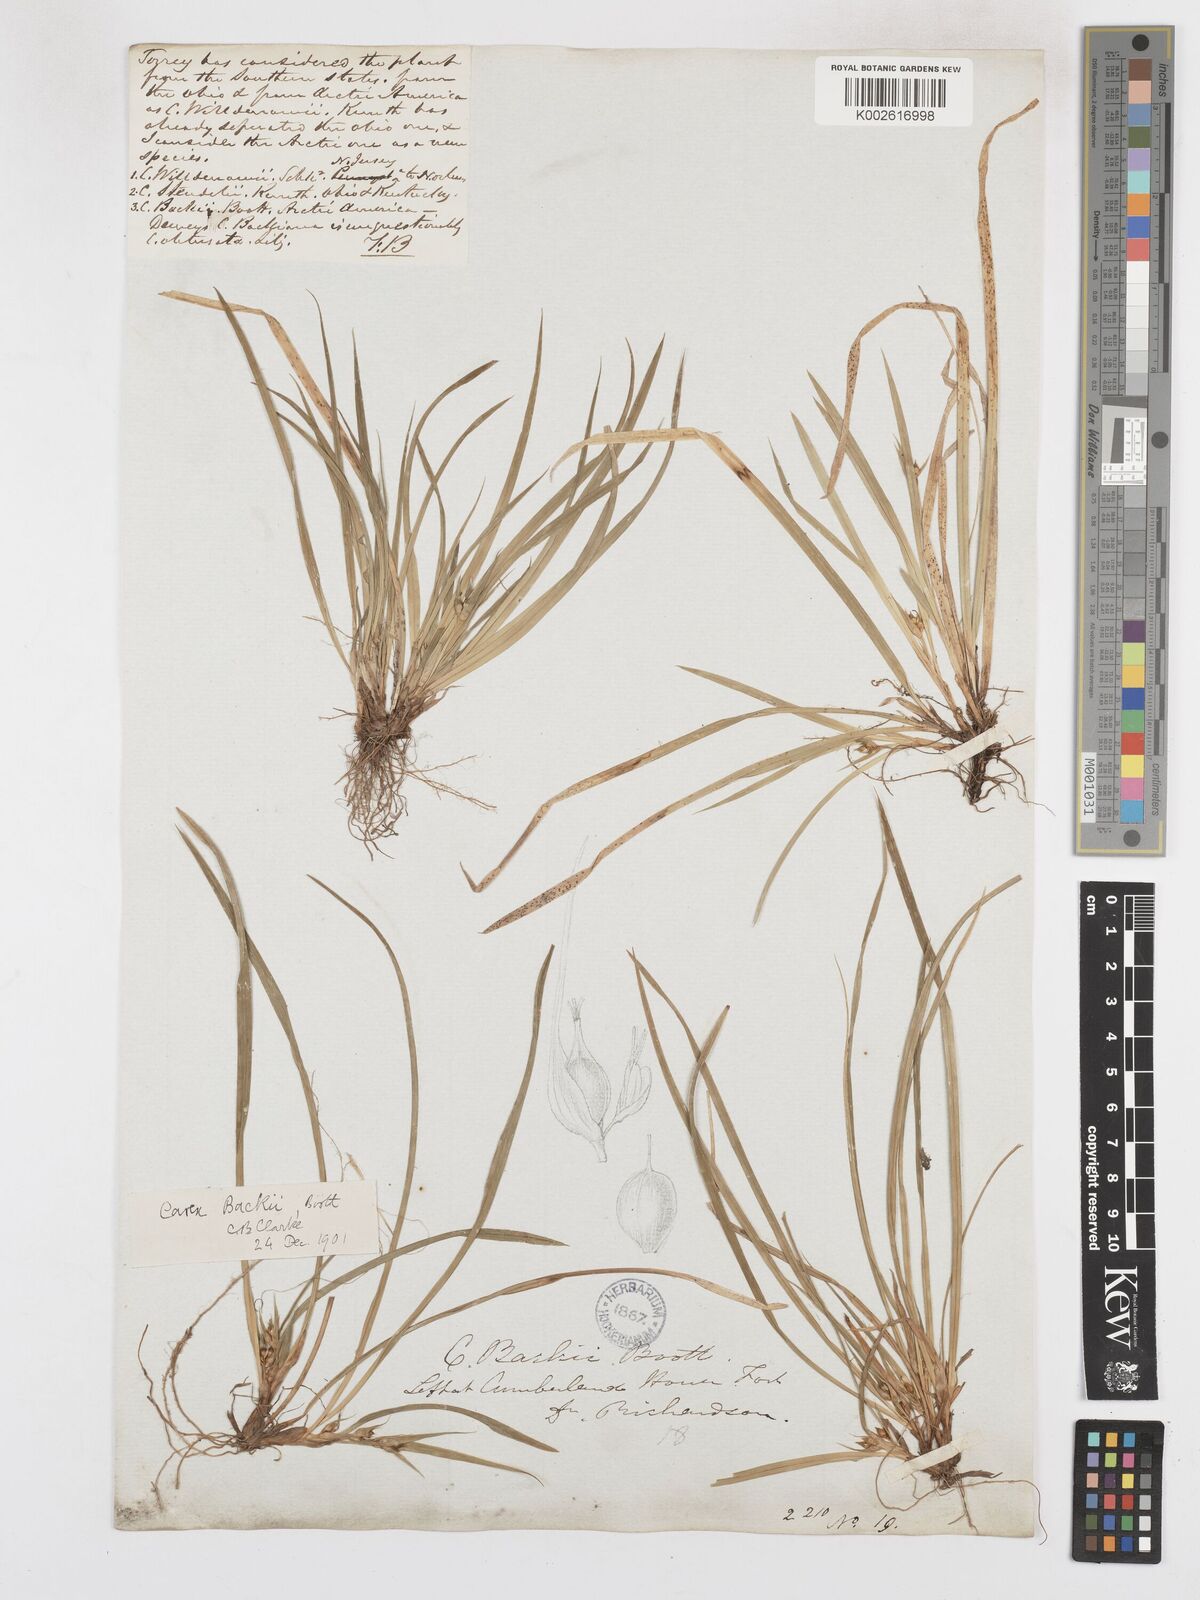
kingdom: Plantae
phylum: Tracheophyta
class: Liliopsida
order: Poales
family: Cyperaceae
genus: Carex
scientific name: Carex backii
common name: Back's sedge
